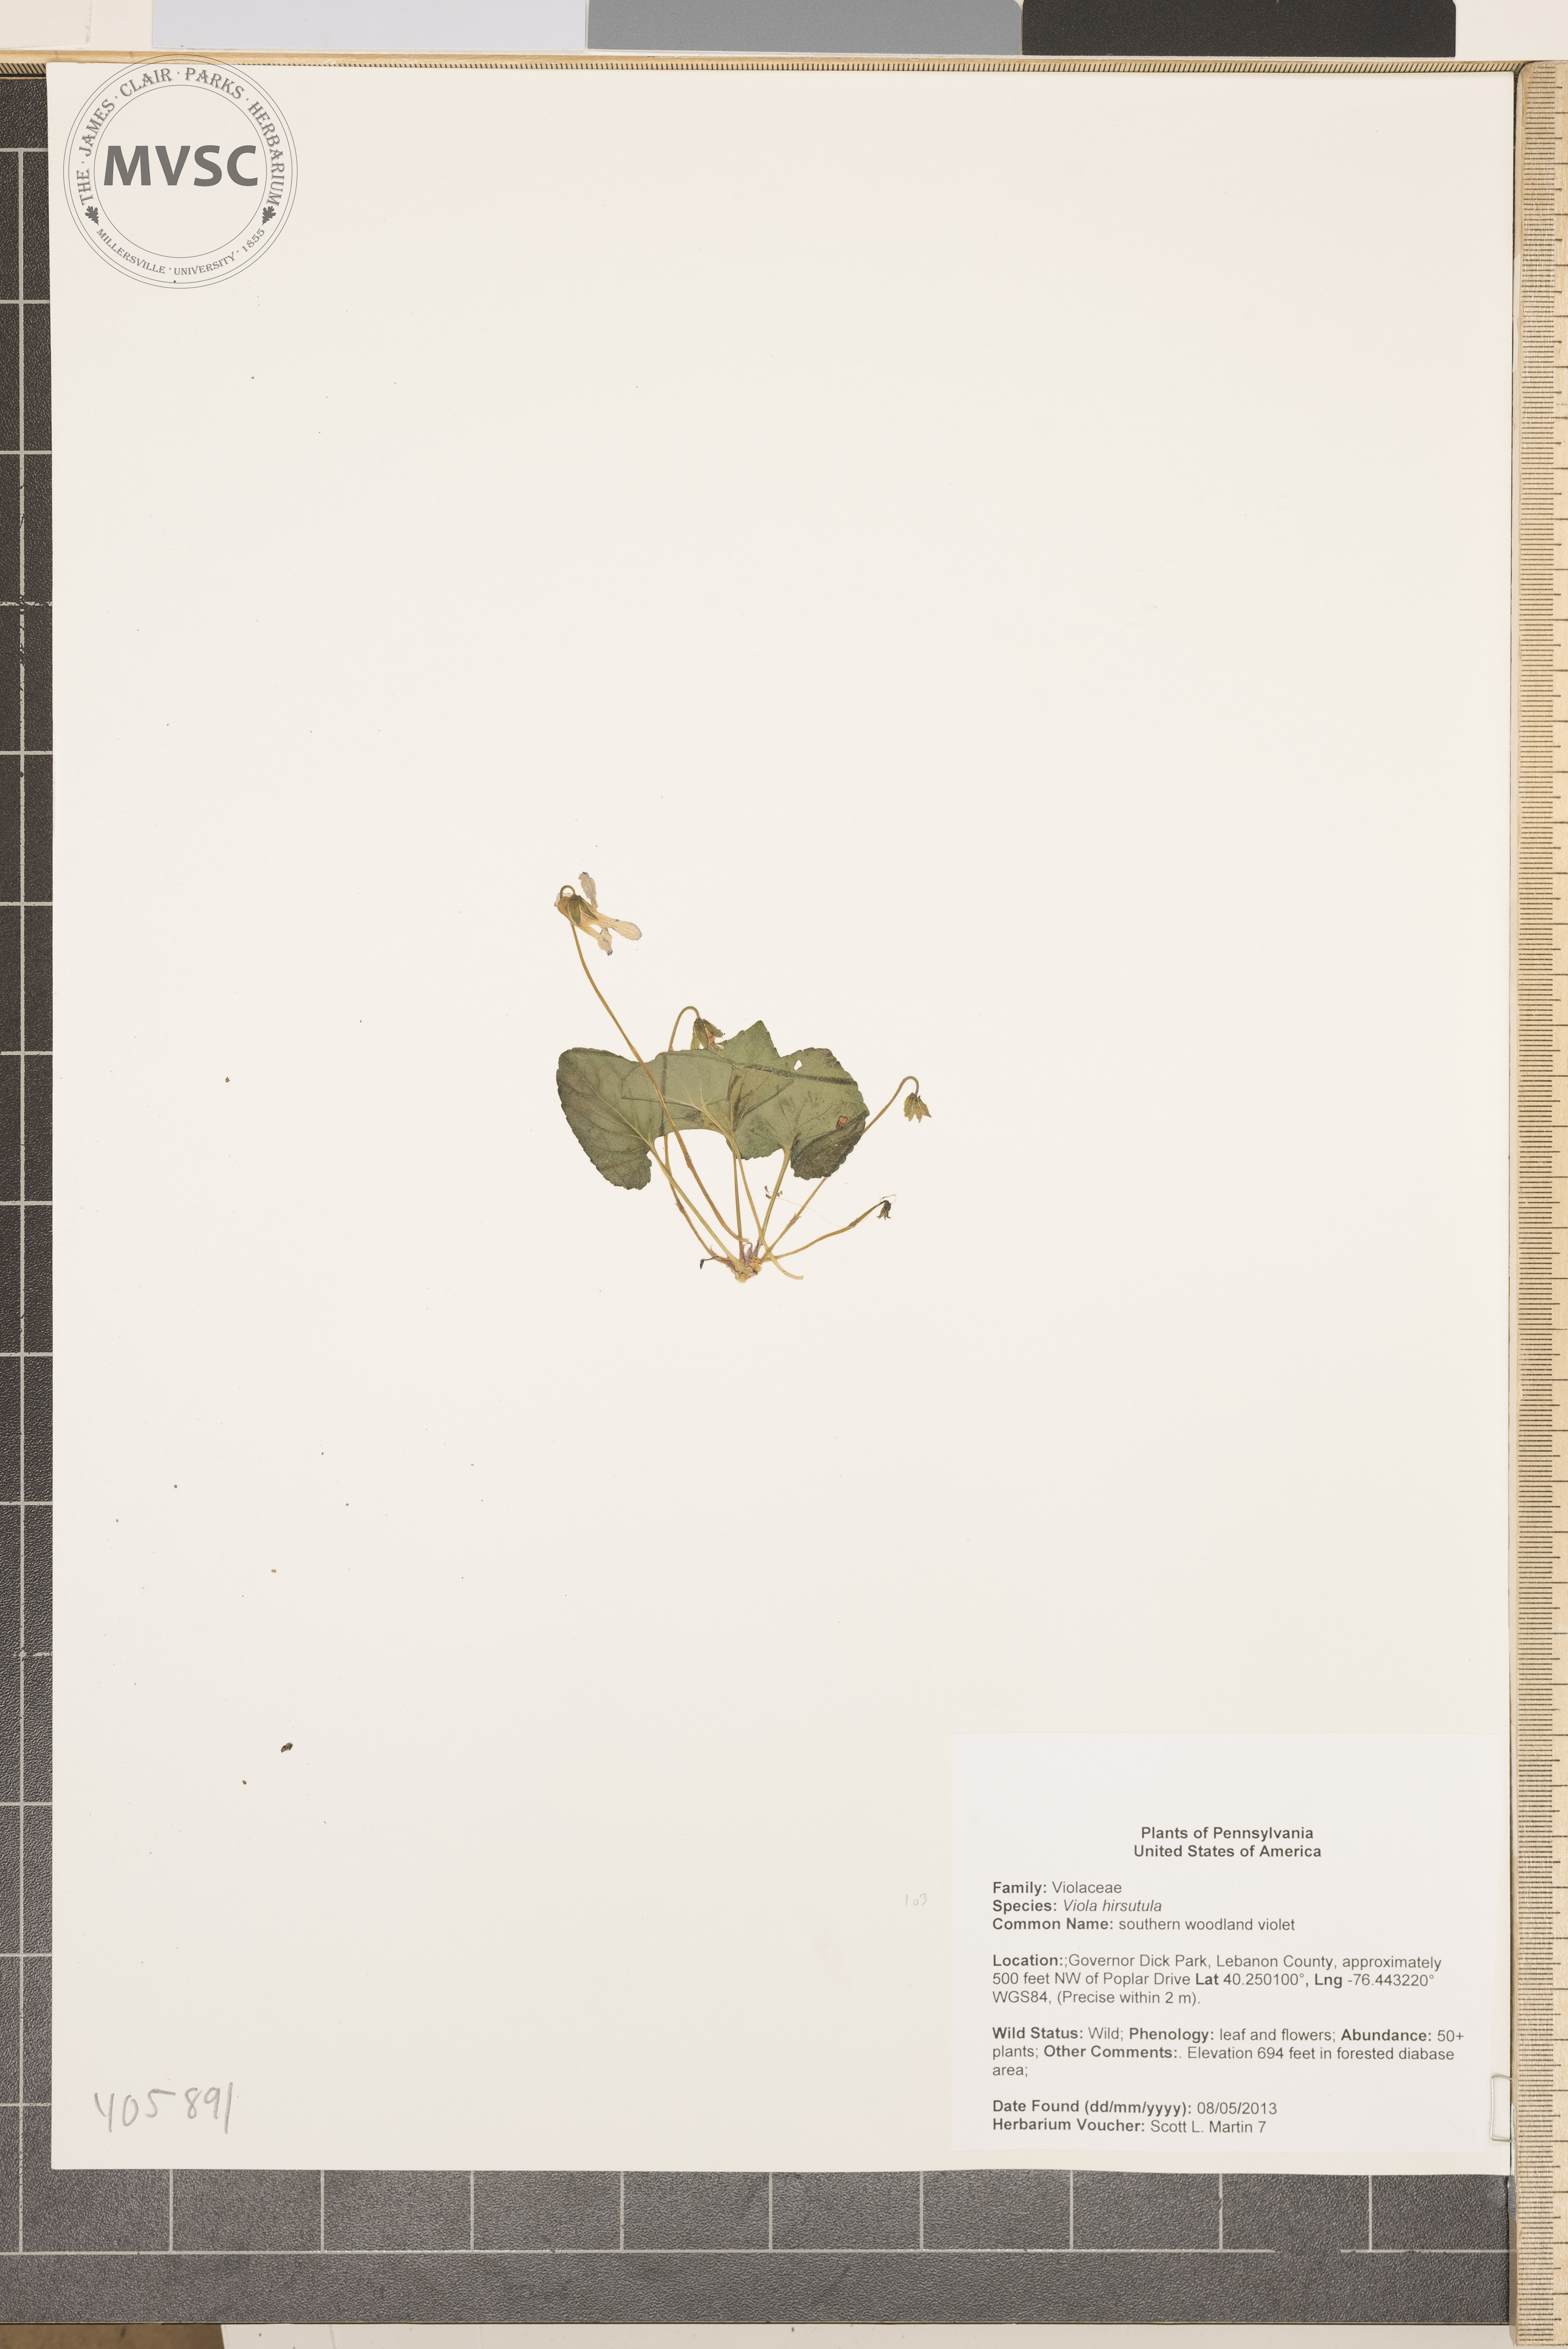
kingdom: Plantae
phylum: Tracheophyta
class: Magnoliopsida
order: Malpighiales
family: Violaceae
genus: Viola
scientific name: Viola hirsutula
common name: southern woodland violet
